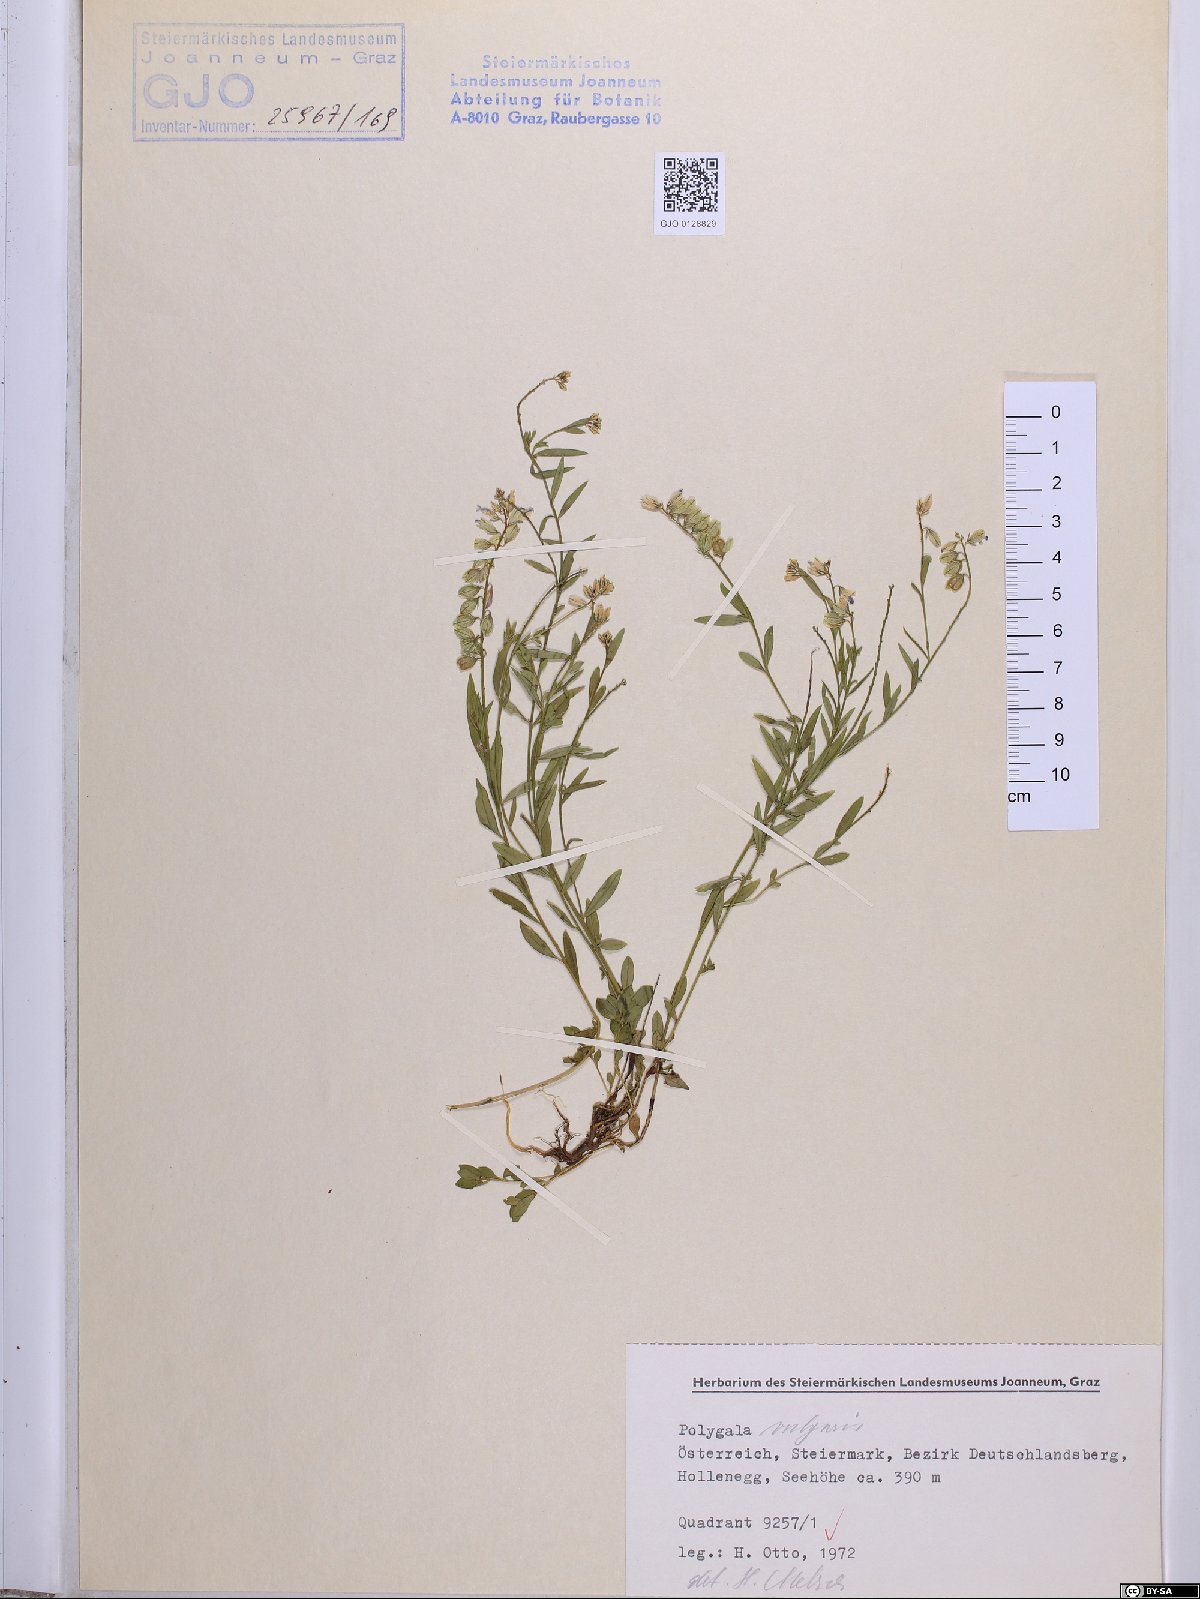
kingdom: Plantae
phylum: Tracheophyta
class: Magnoliopsida
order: Fabales
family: Polygalaceae
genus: Polygala
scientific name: Polygala vulgaris
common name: Common milkwort
